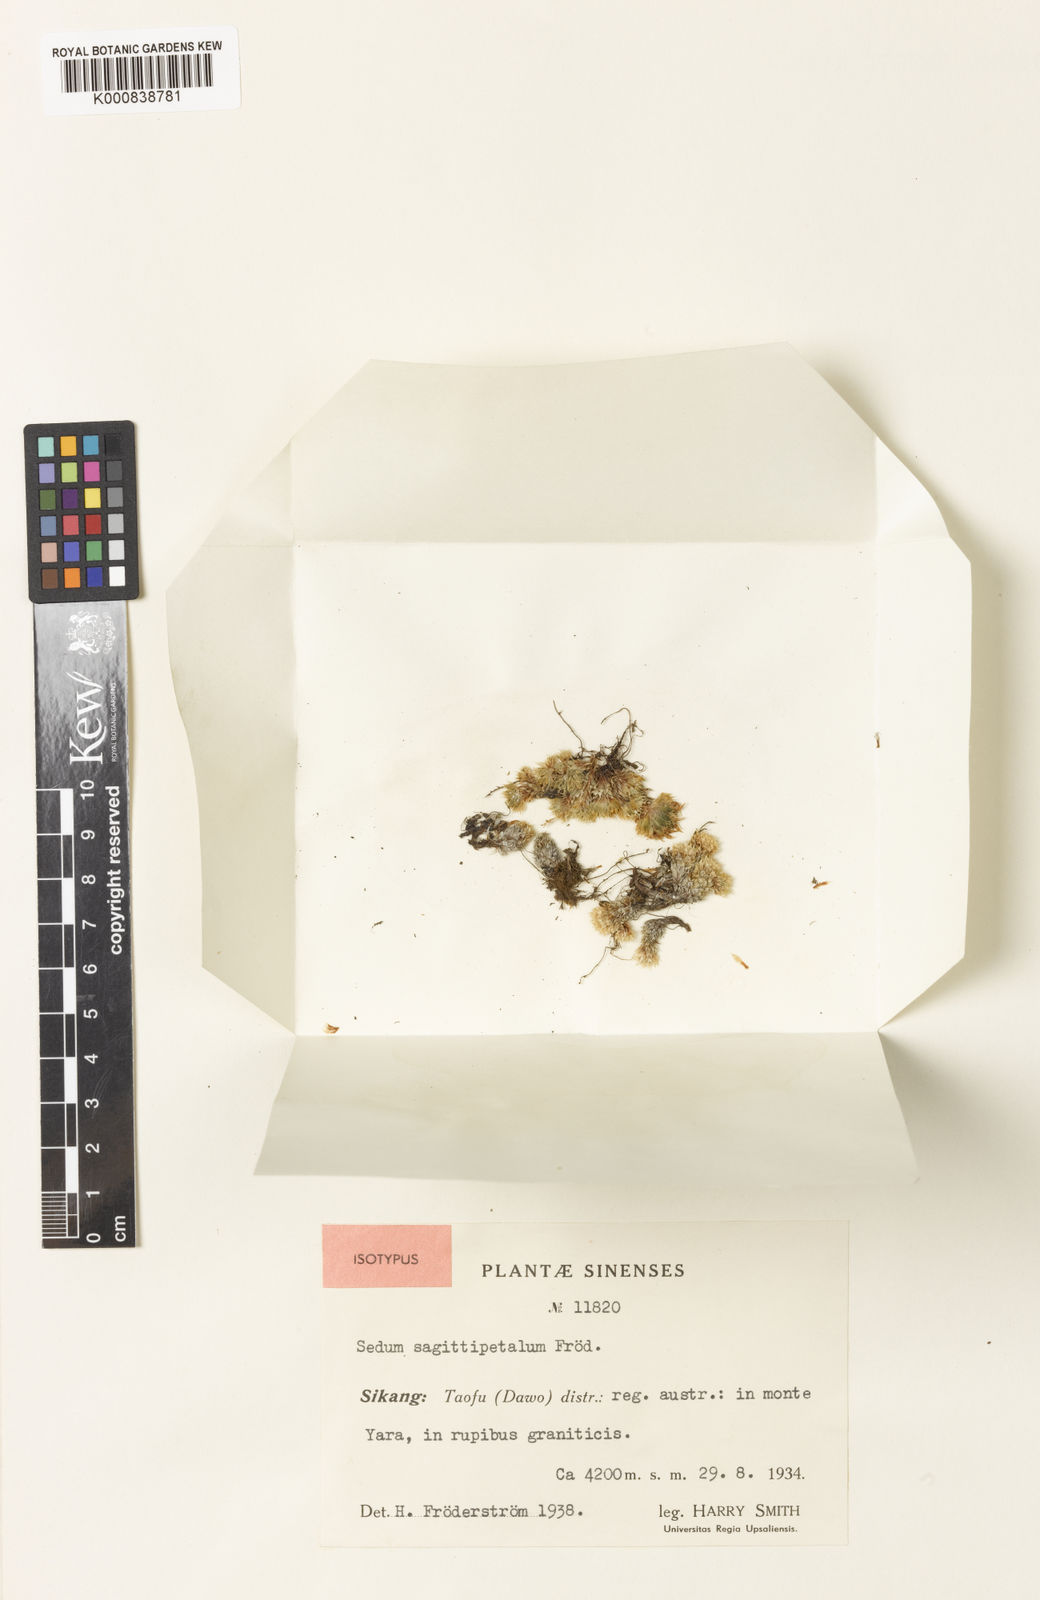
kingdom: Plantae
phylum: Tracheophyta
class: Magnoliopsida
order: Saxifragales
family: Crassulaceae
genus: Rhodiola
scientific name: Rhodiola macrocarpa
